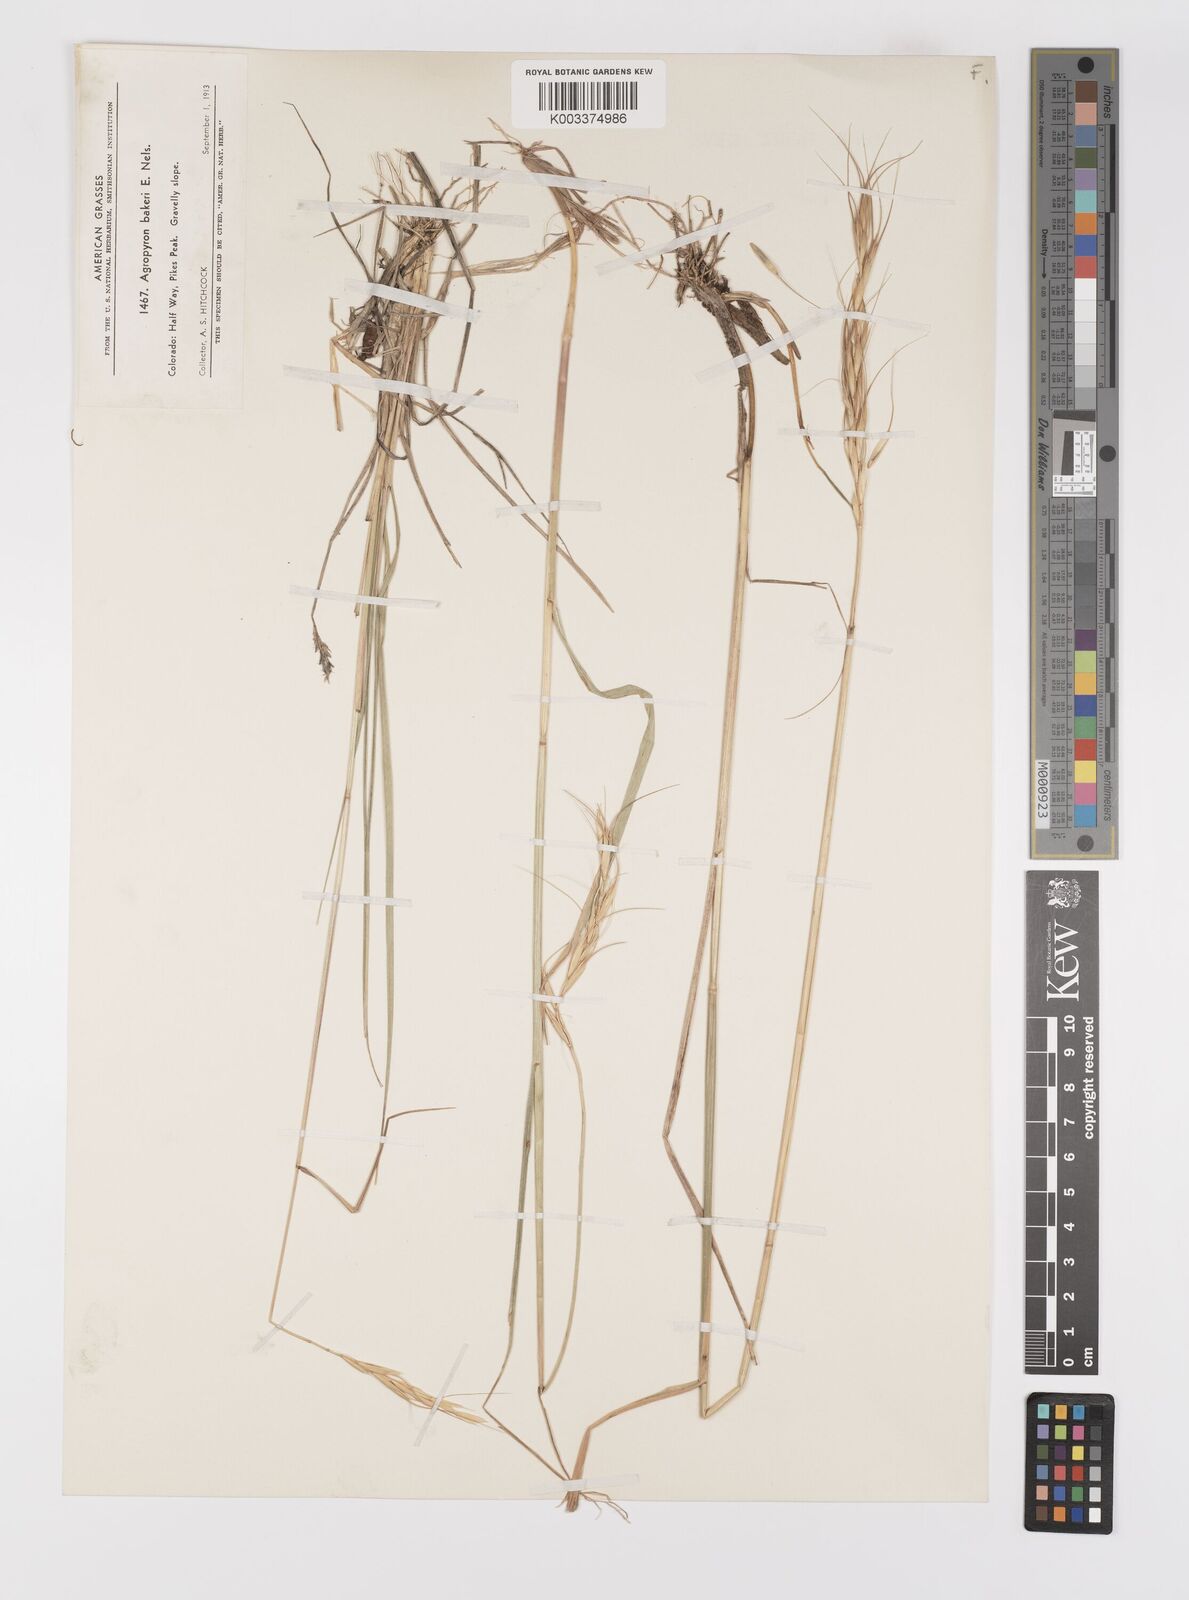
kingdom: Plantae
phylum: Tracheophyta
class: Liliopsida
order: Poales
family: Poaceae
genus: Elymus
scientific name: Elymus bakeri
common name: Baker's wheatgrass
